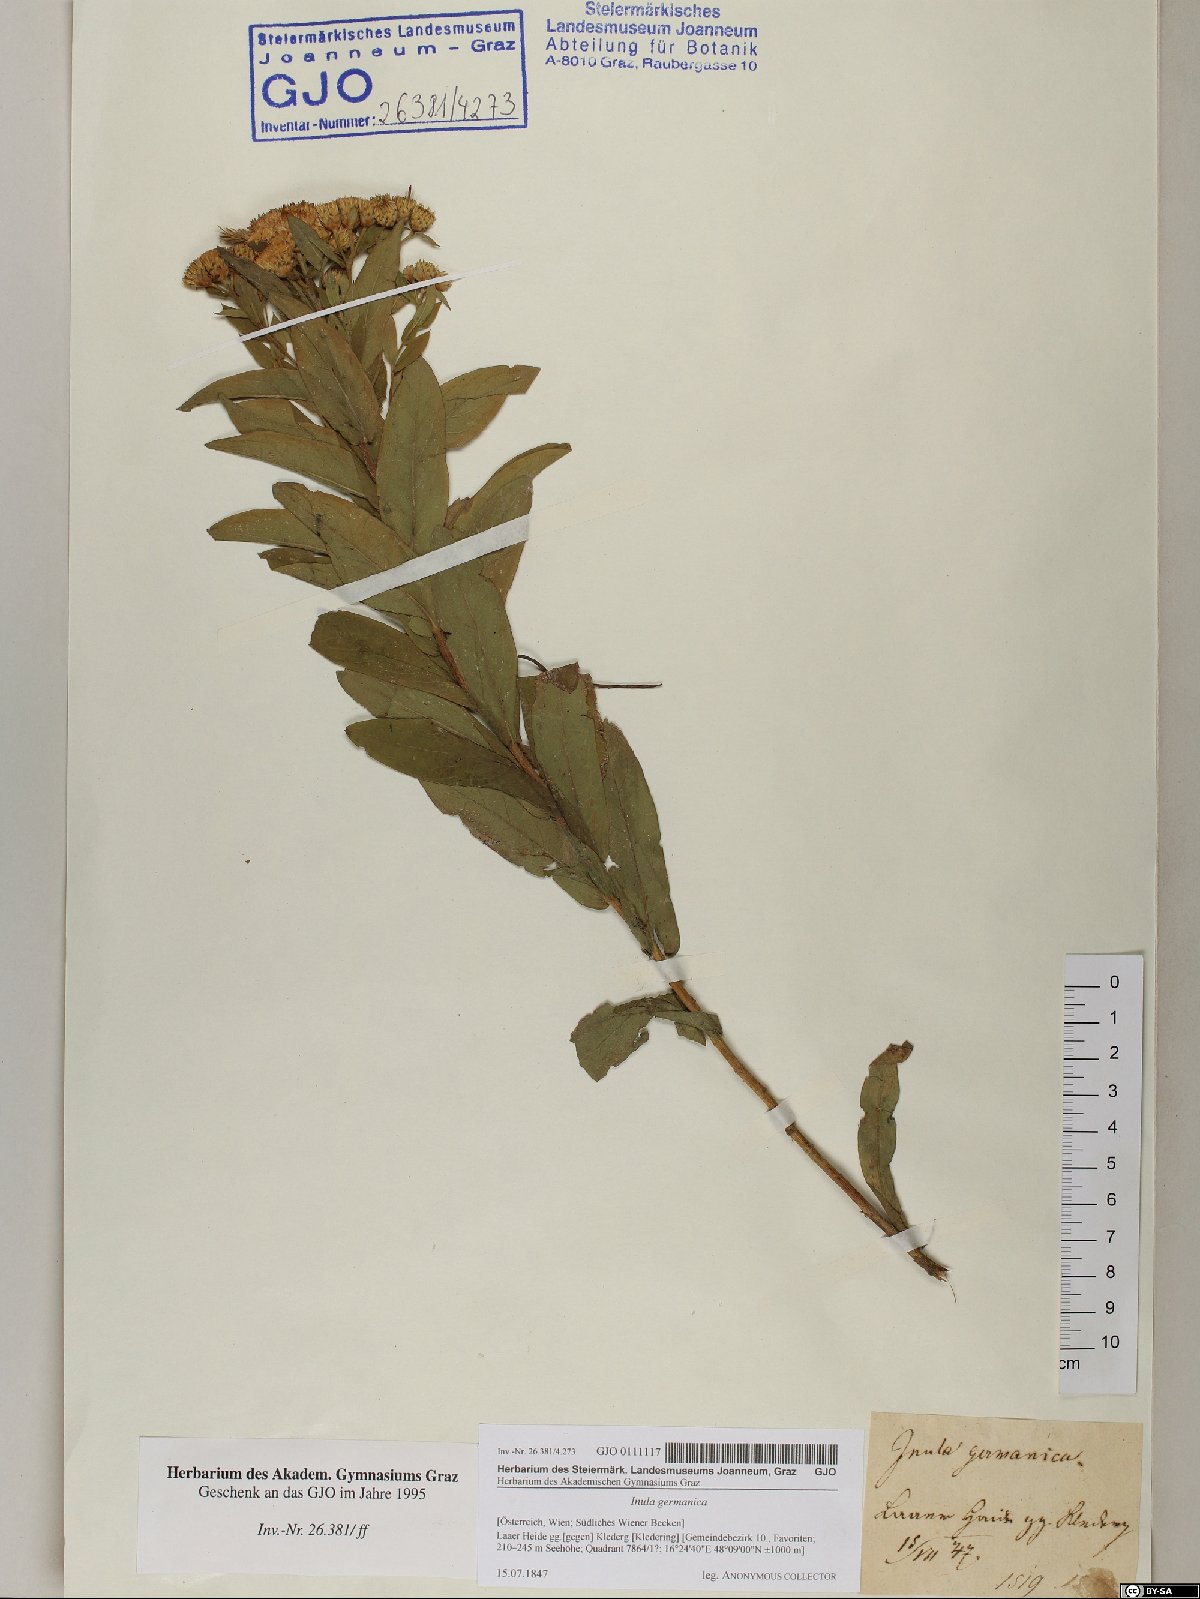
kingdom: Plantae
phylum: Tracheophyta
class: Magnoliopsida
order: Asterales
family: Asteraceae
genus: Pentanema
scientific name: Pentanema germanicum
